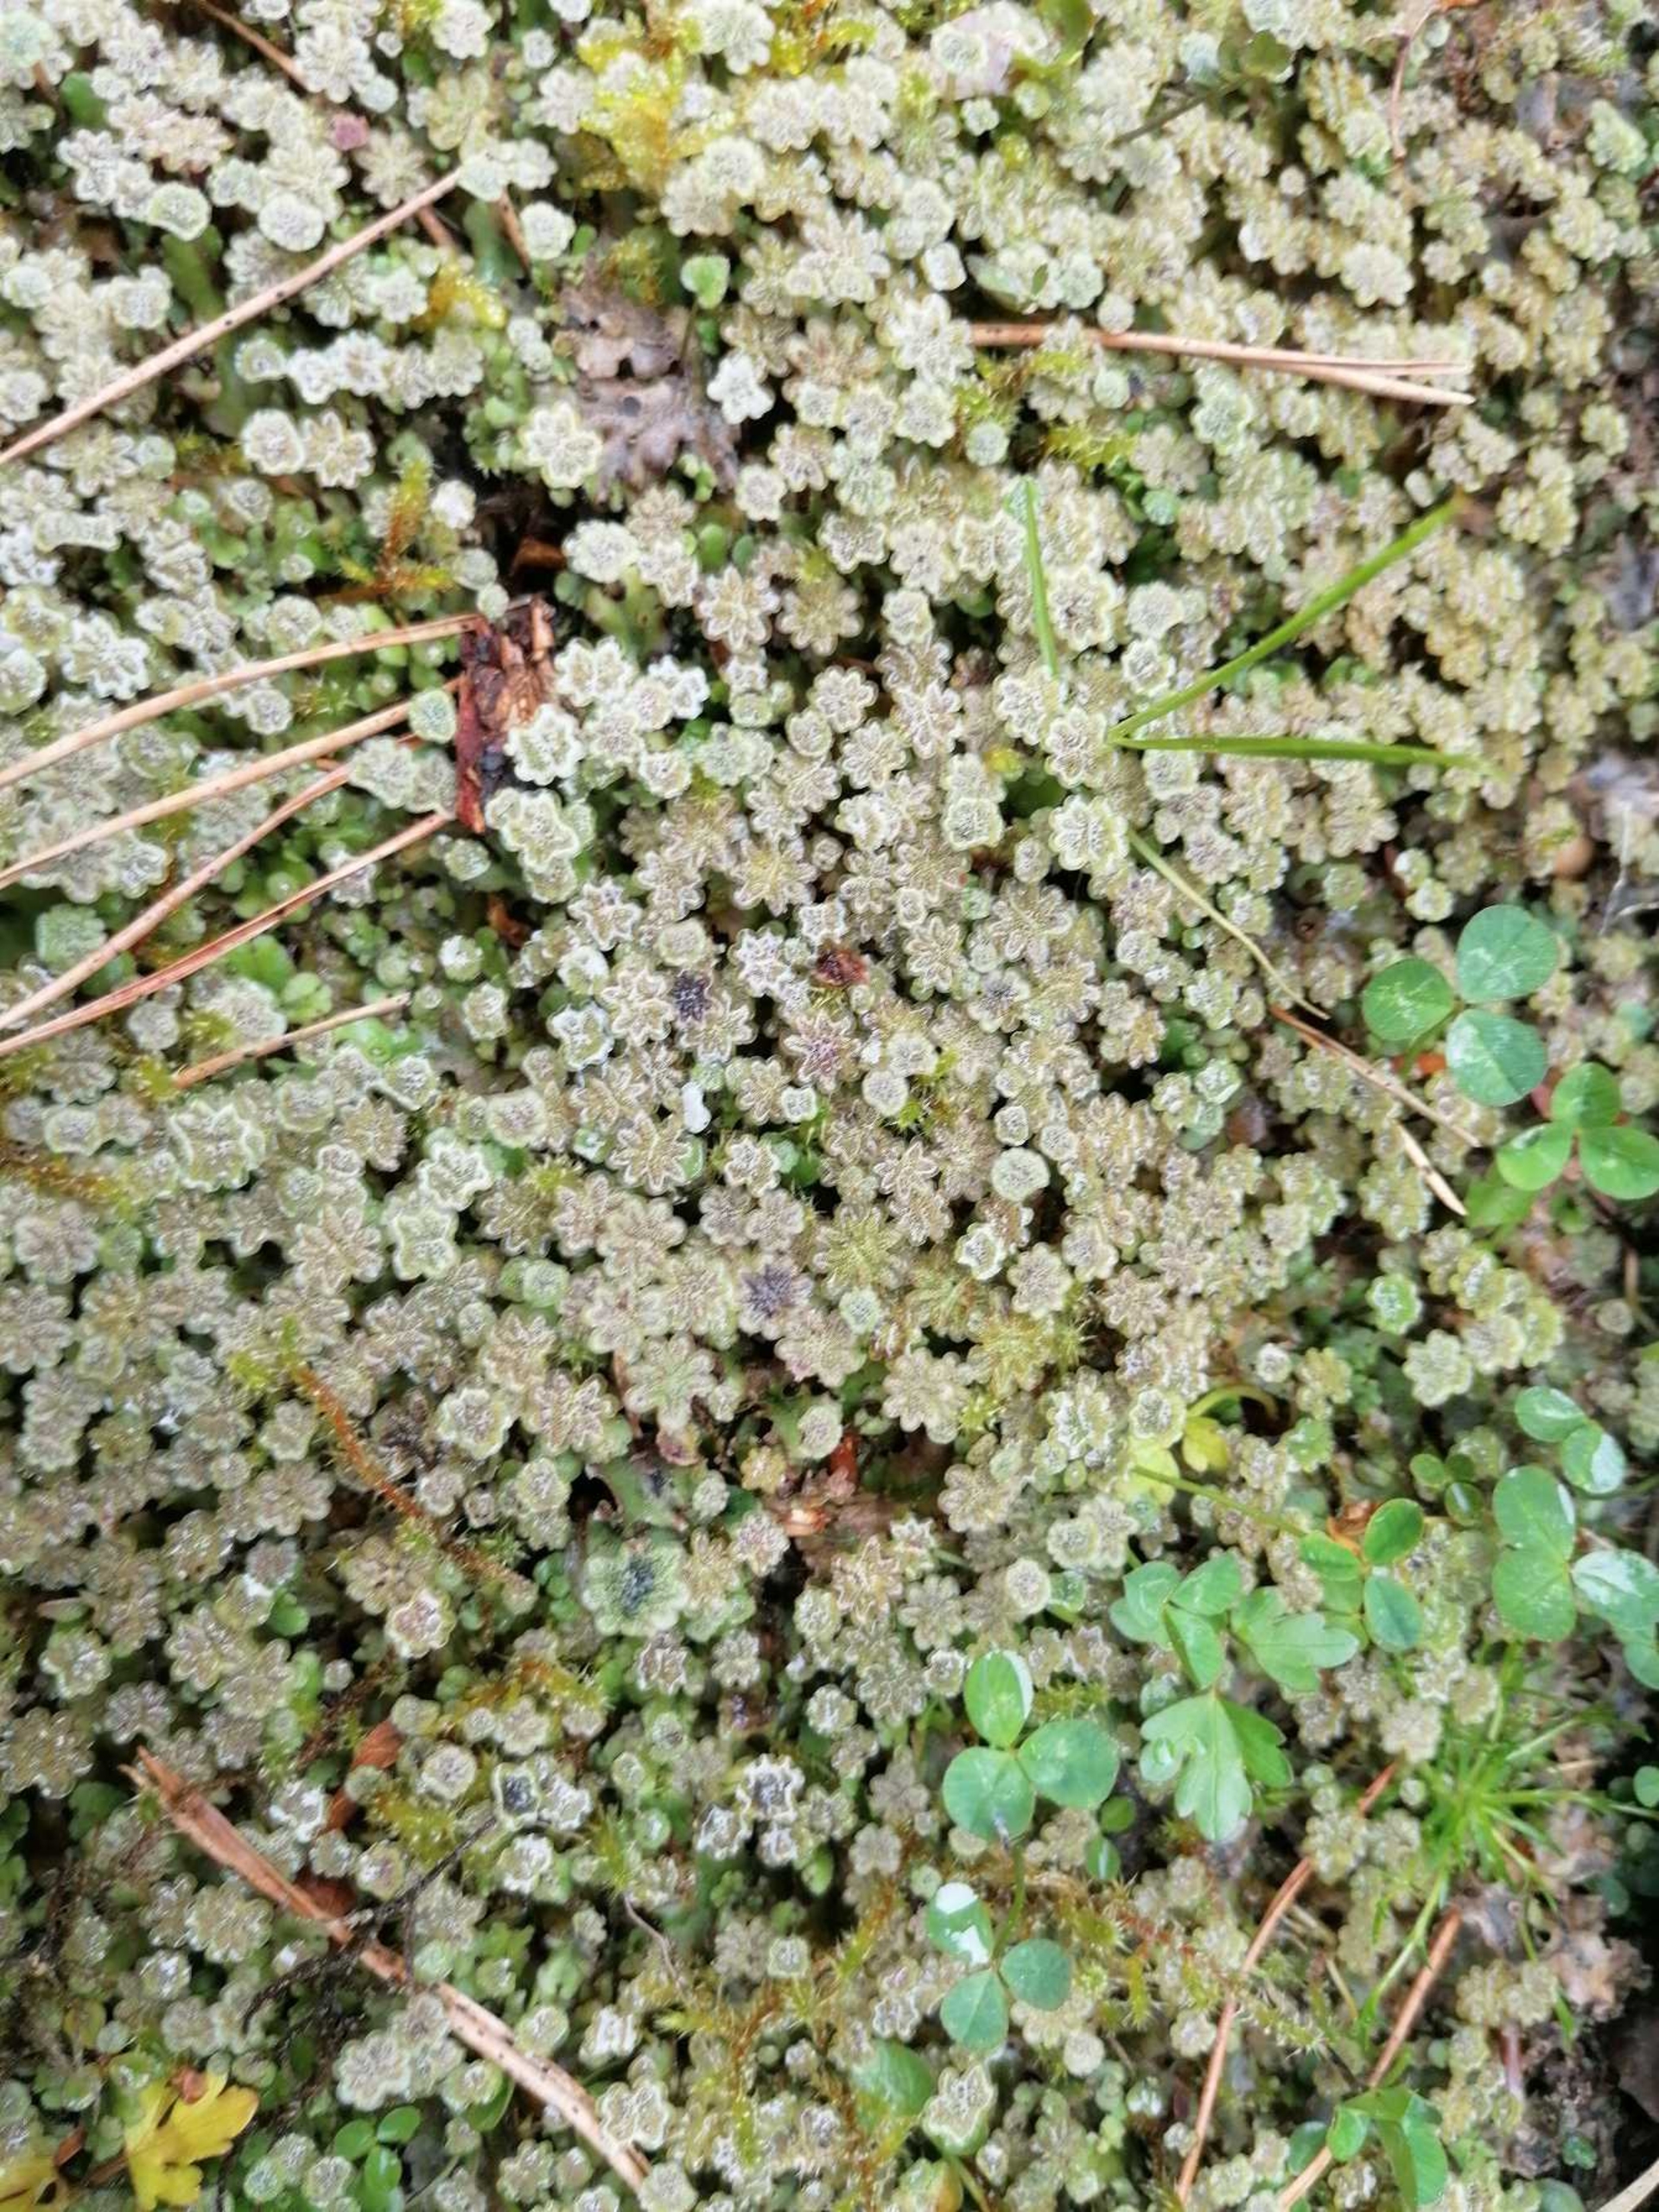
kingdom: Plantae
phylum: Marchantiophyta
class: Marchantiopsida
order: Marchantiales
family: Marchantiaceae
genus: Marchantia
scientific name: Marchantia polymorpha
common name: Almindelig lungemos (underart)
